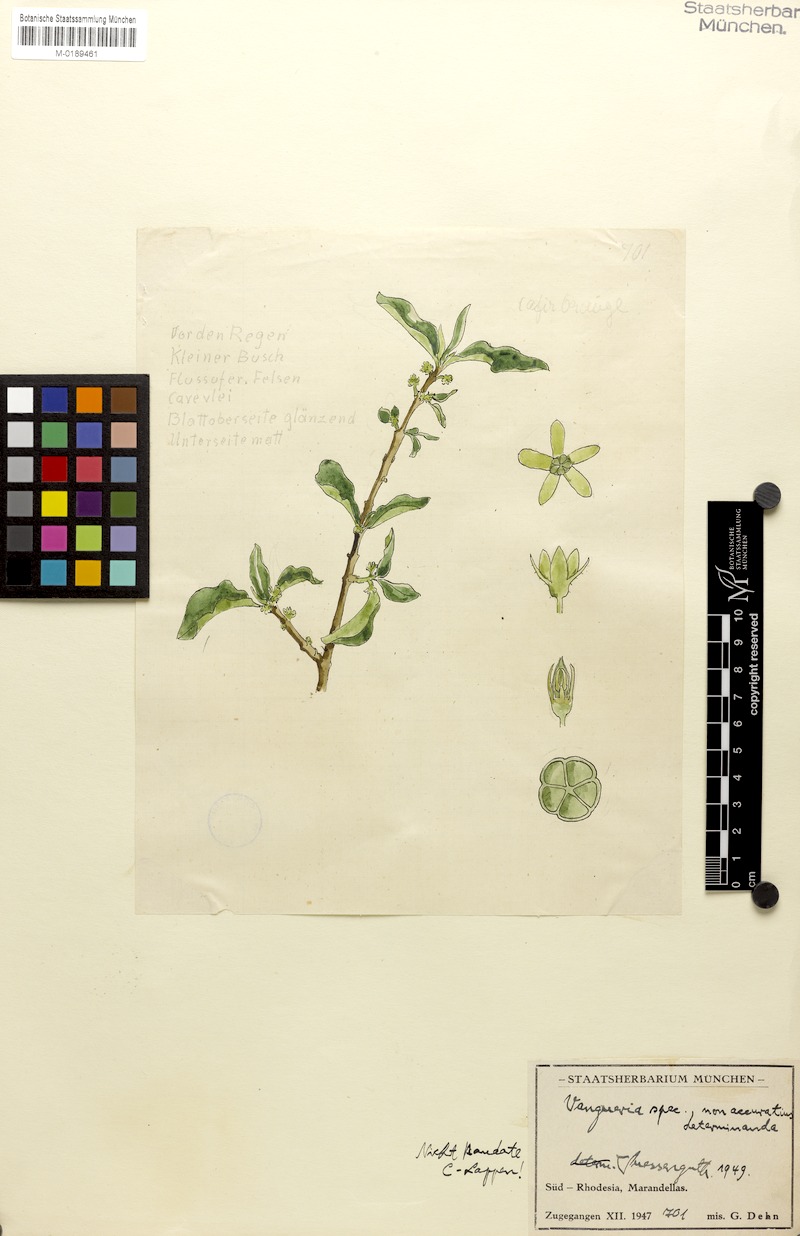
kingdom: Plantae
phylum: Tracheophyta
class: Magnoliopsida
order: Gentianales
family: Rubiaceae
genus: Vangueria
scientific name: Vangueria
